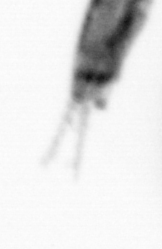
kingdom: Animalia
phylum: Arthropoda
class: Copepoda
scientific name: Copepoda
